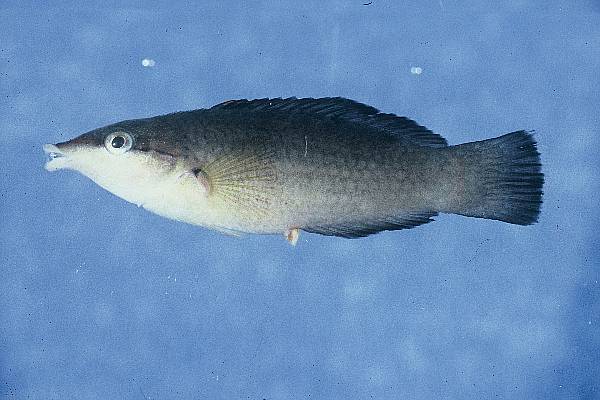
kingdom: Animalia
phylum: Chordata
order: Perciformes
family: Labridae
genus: Gomphosus
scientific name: Gomphosus caeruleus
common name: Bird wrasse
